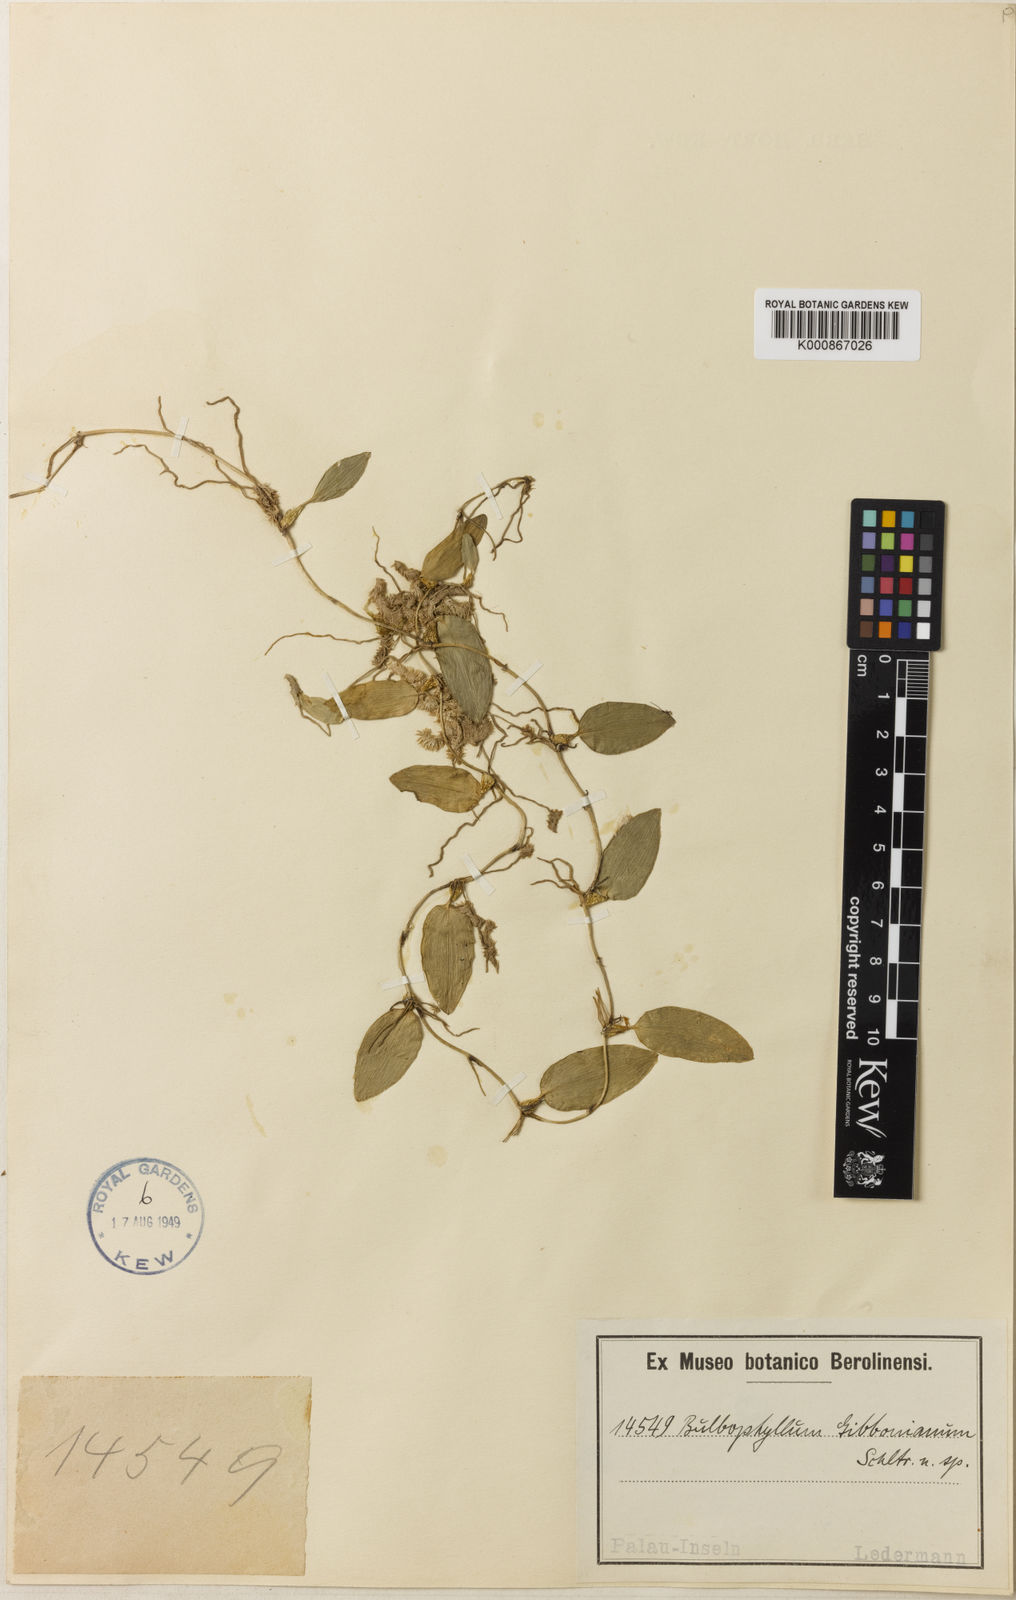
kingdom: Plantae
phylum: Tracheophyta
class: Liliopsida
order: Asparagales
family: Orchidaceae
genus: Bulbophyllum
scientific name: Bulbophyllum membranaceum
